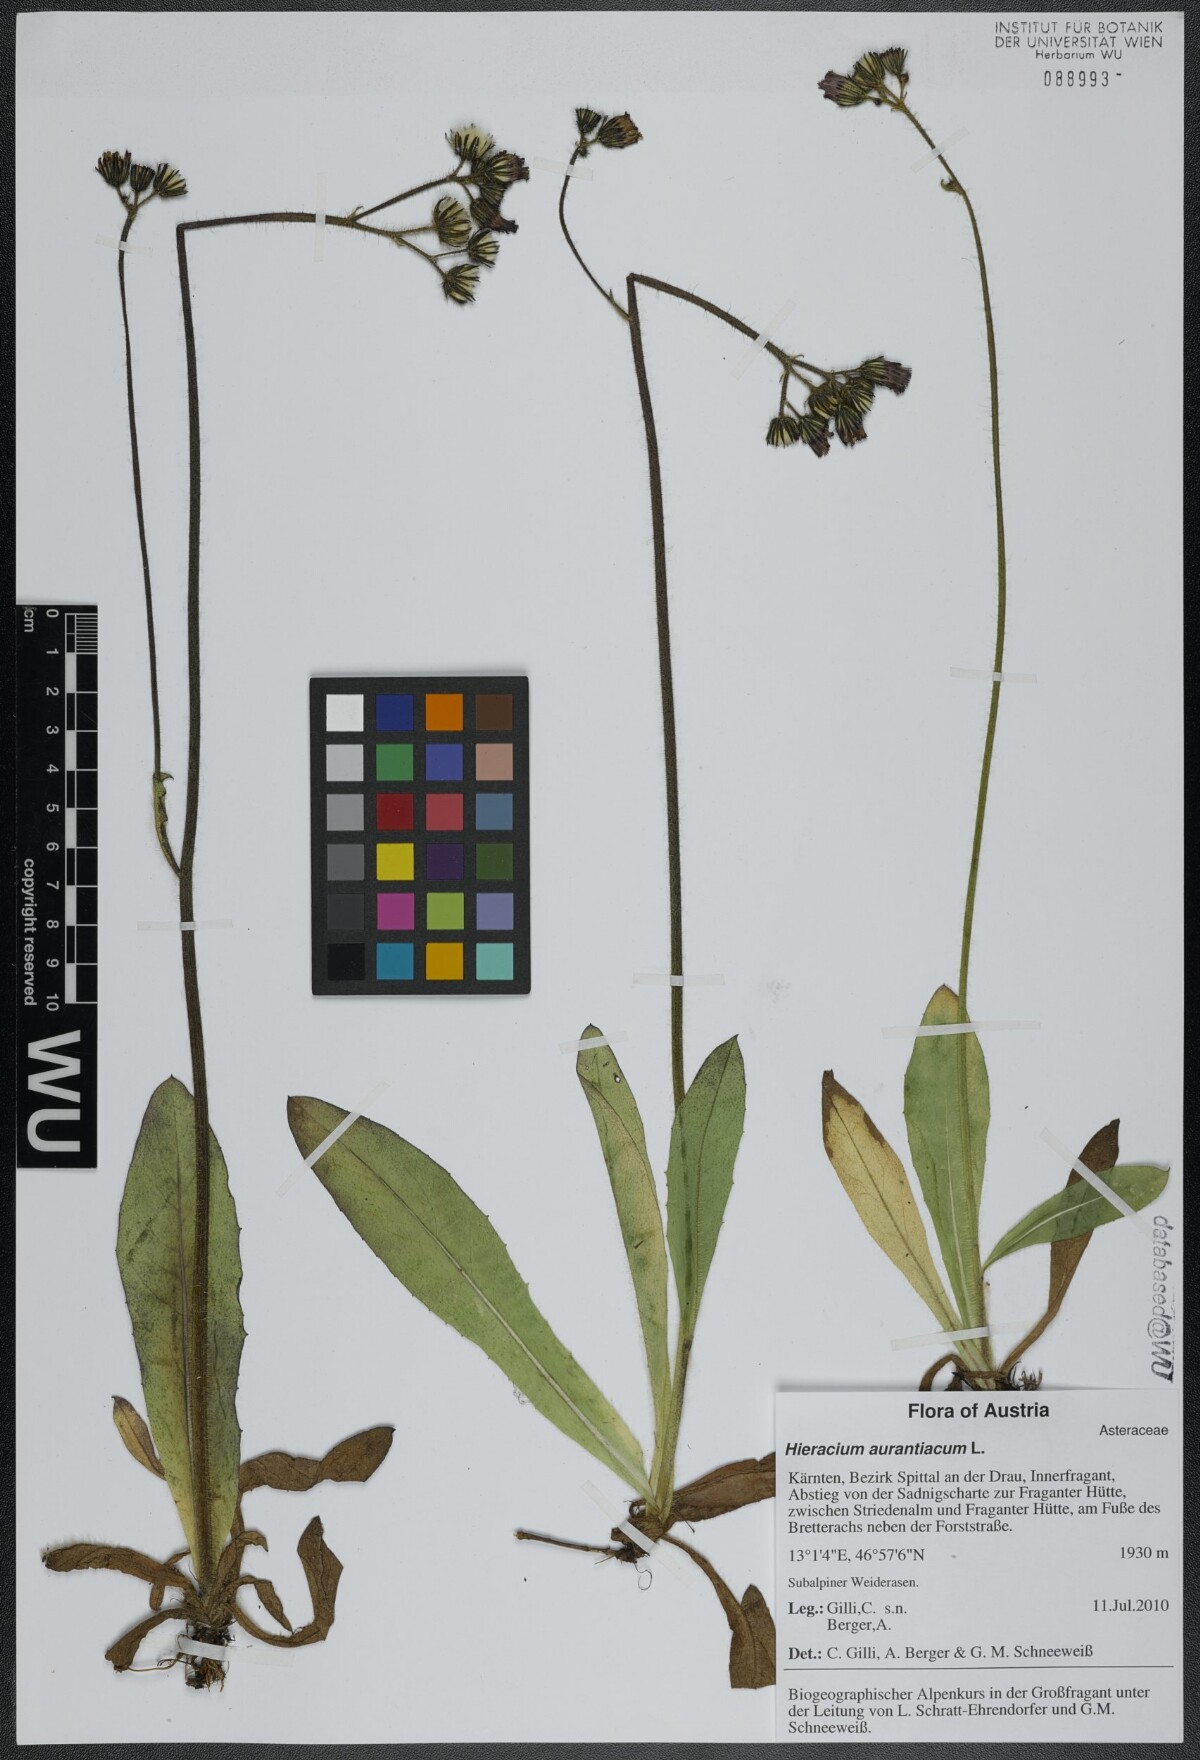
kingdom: Plantae
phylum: Tracheophyta
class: Magnoliopsida
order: Asterales
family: Asteraceae
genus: Pilosella
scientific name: Pilosella aurantiaca
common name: Fox-and-cubs
